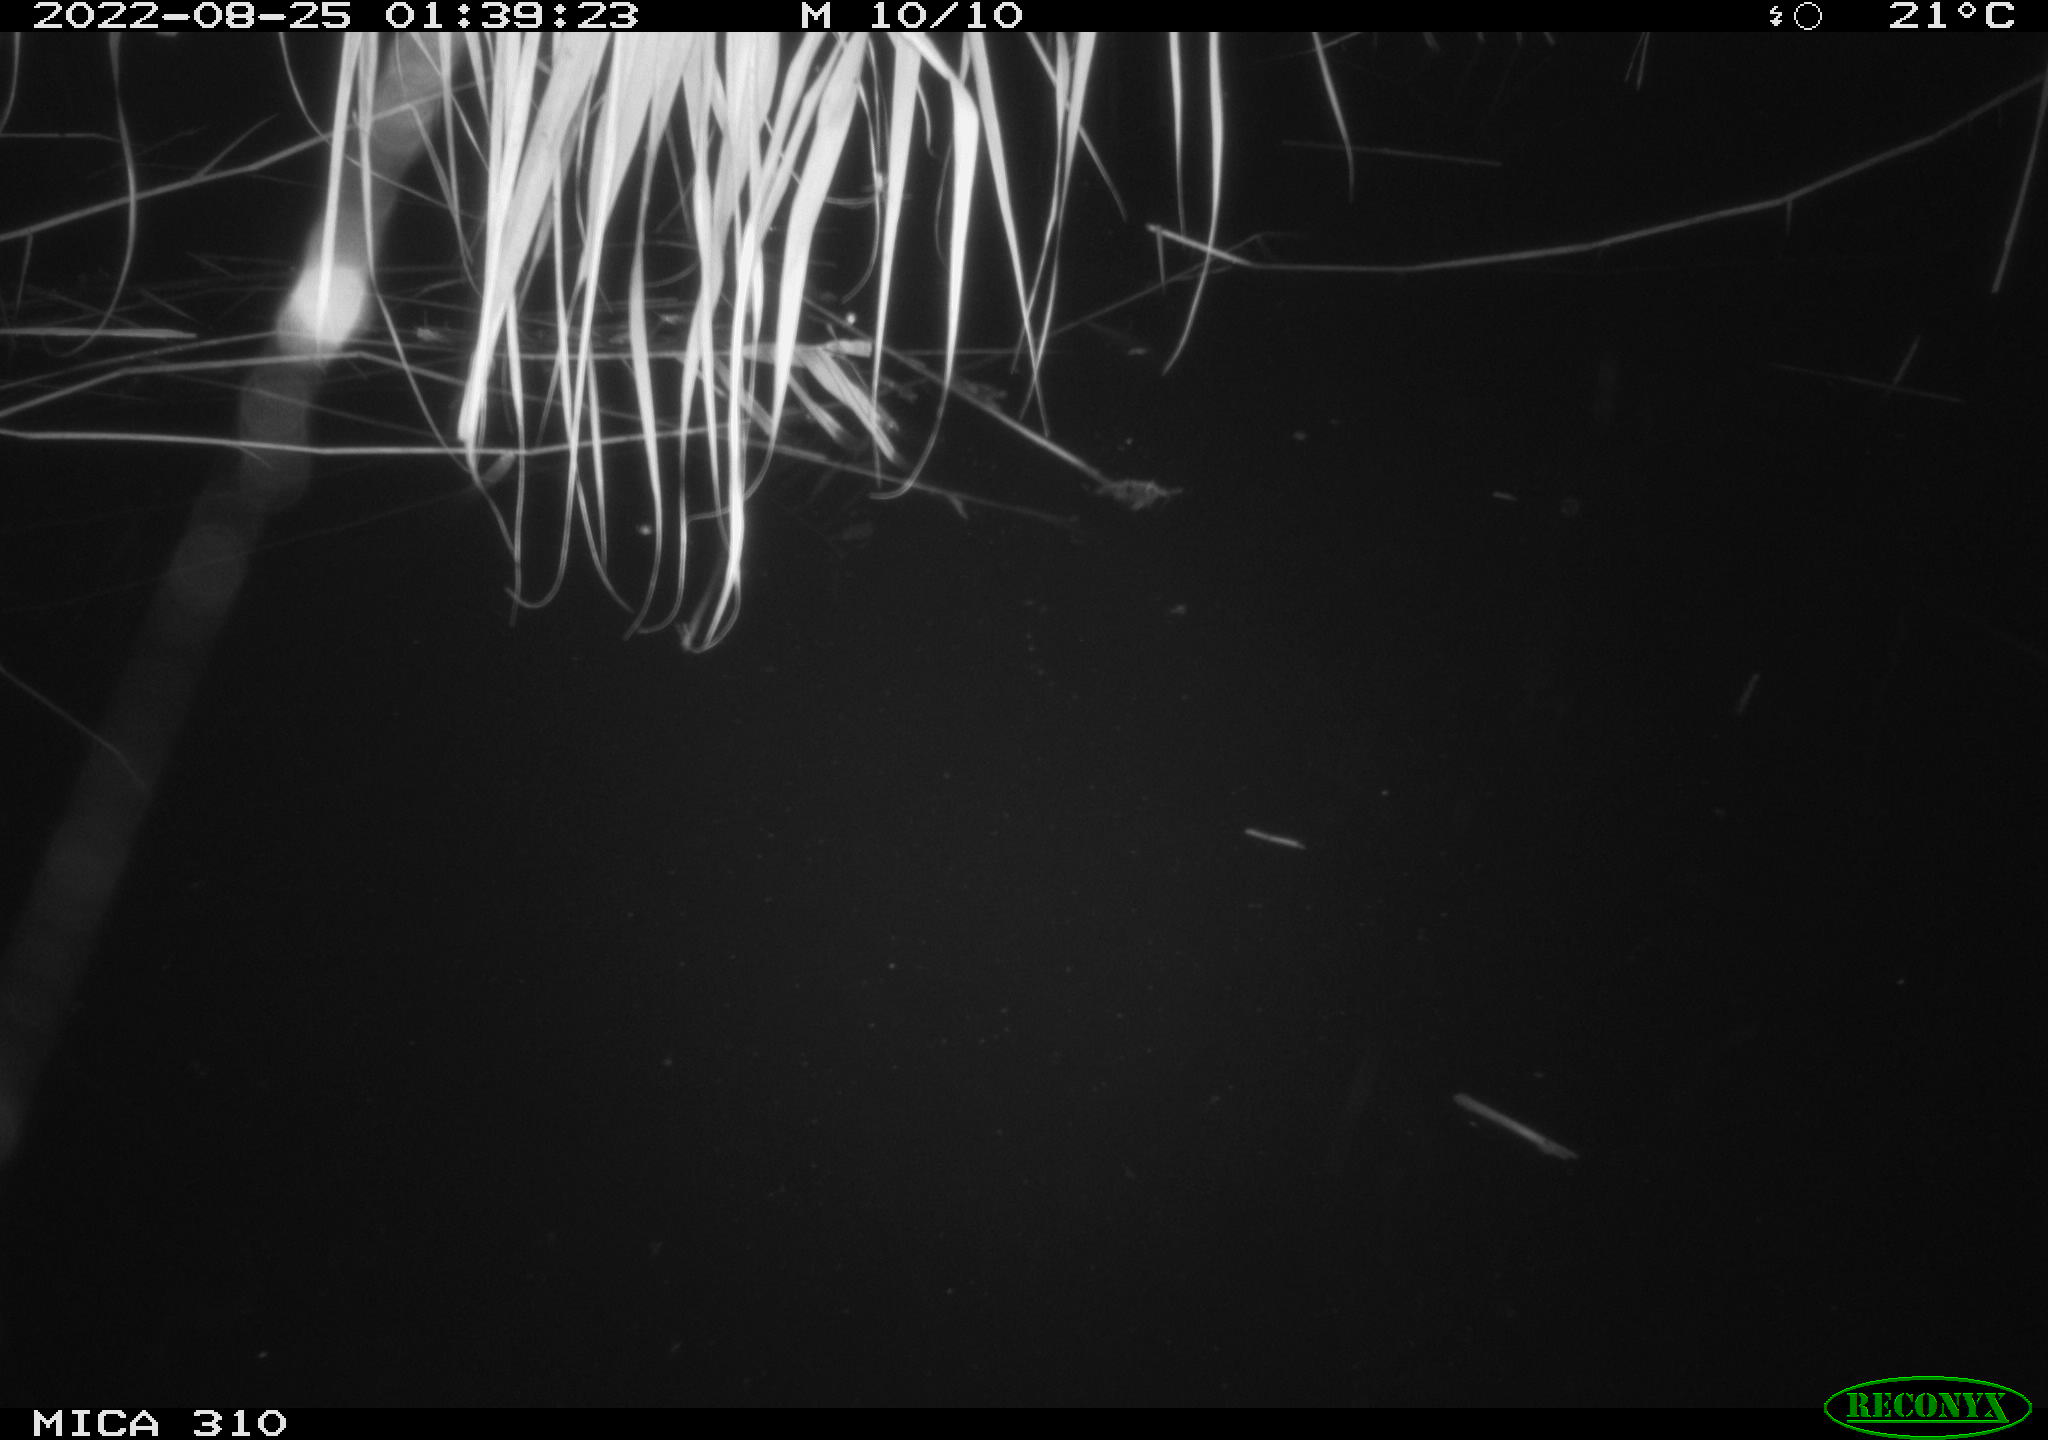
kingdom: Animalia
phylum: Chordata
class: Aves
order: Anseriformes
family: Anatidae
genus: Anas
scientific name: Anas platyrhynchos
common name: Mallard
